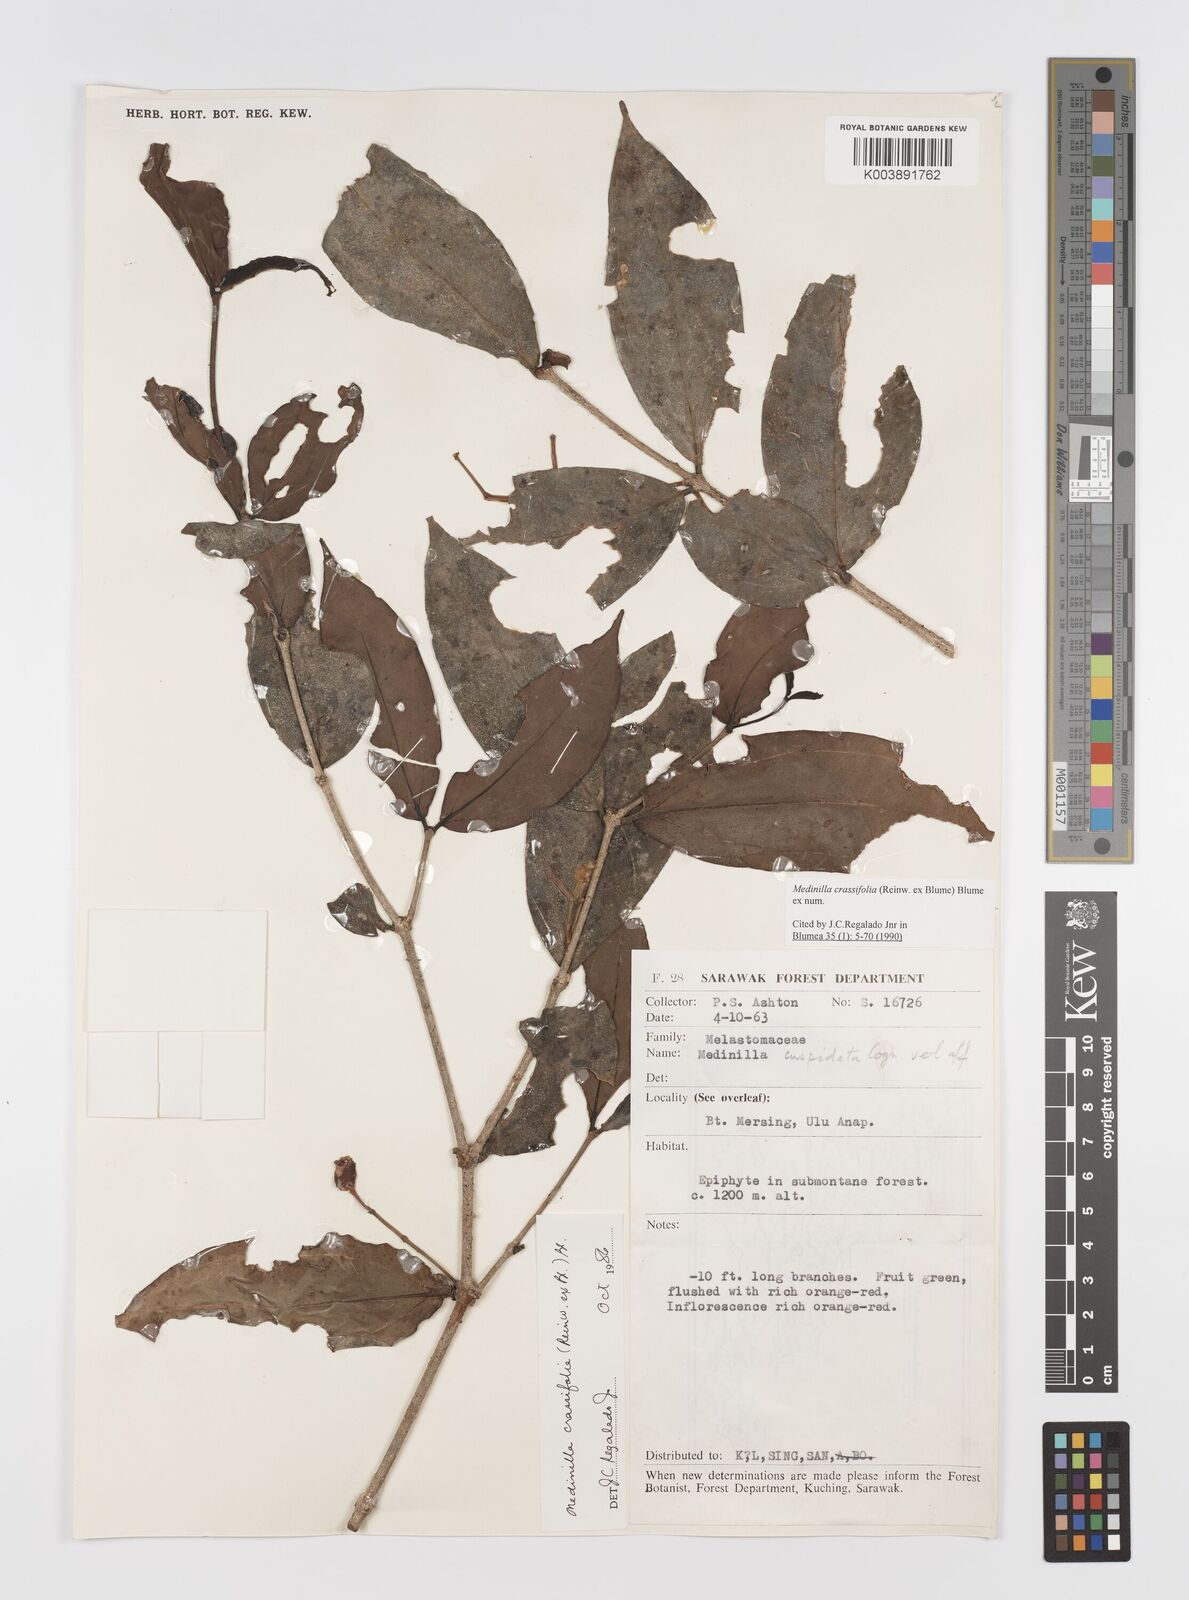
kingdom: Plantae
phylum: Tracheophyta
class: Magnoliopsida
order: Myrtales
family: Melastomataceae
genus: Medinilla
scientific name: Medinilla crassifolia
